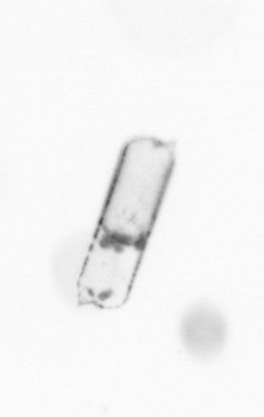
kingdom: Chromista
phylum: Ochrophyta
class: Bacillariophyceae
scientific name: Bacillariophyceae
